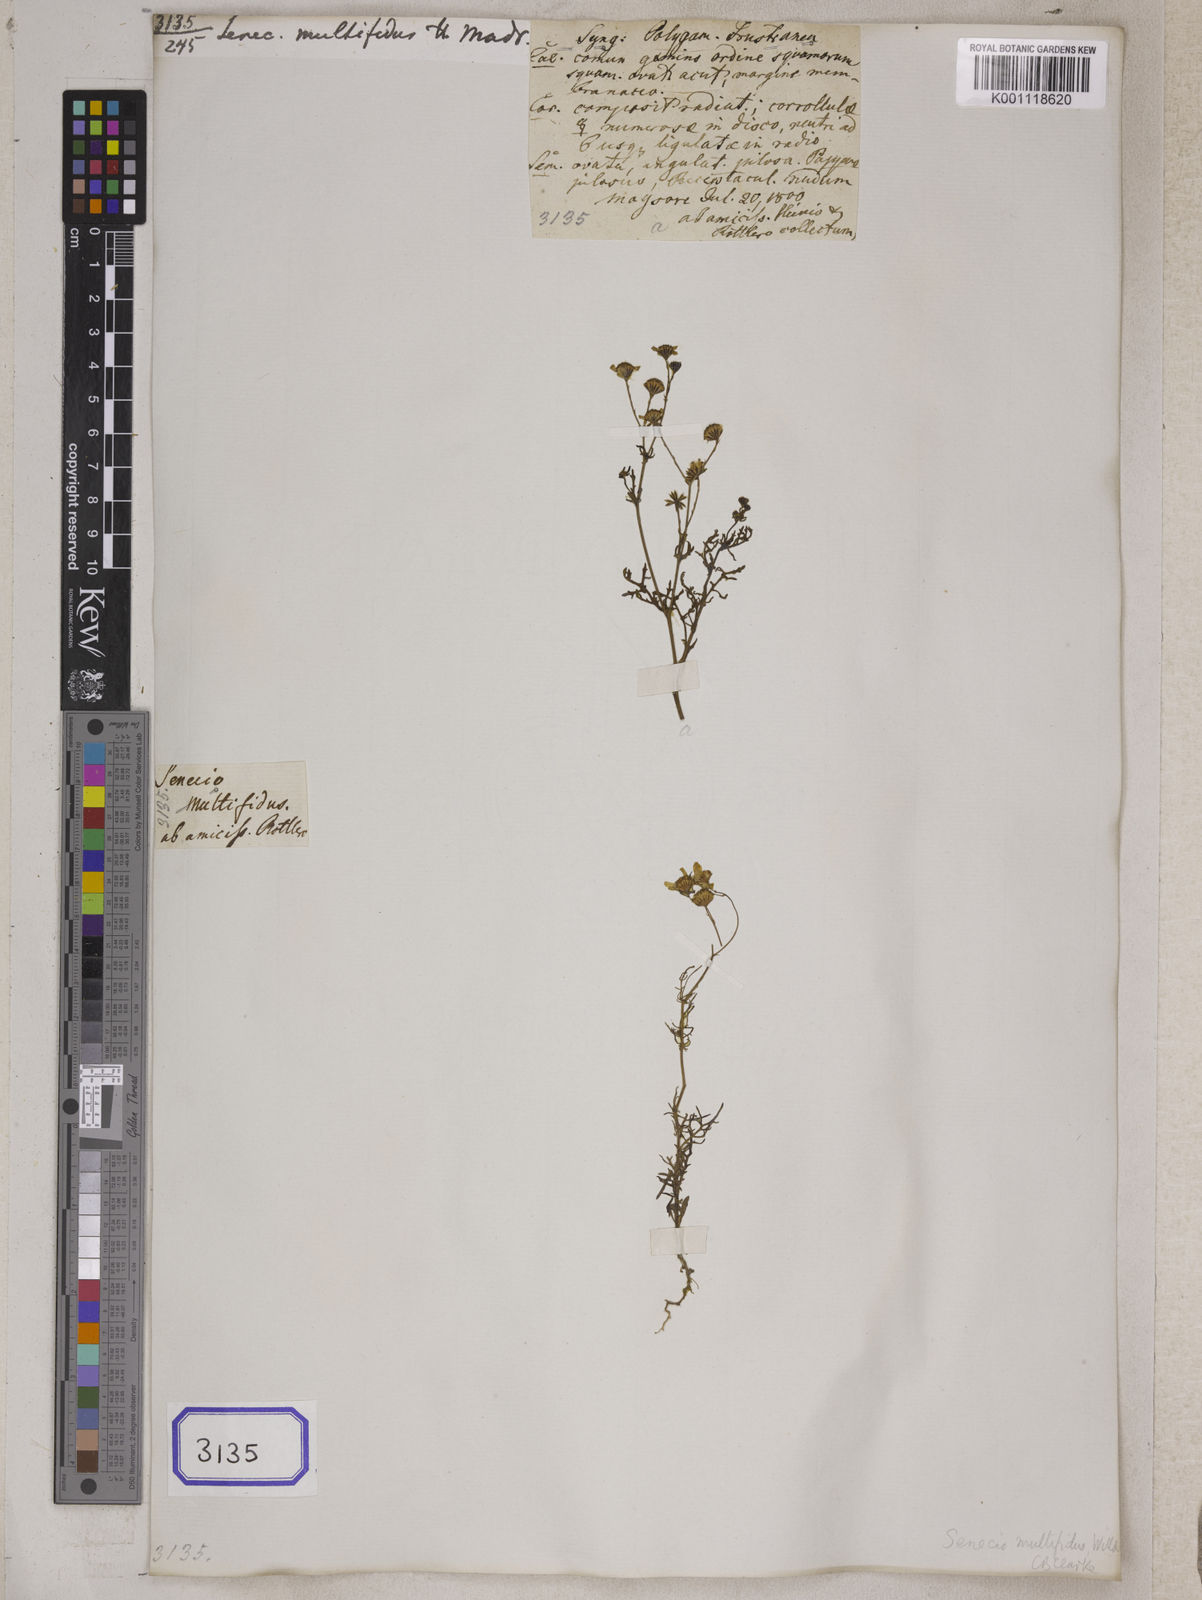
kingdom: Plantae
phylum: Tracheophyta
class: Magnoliopsida
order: Asterales
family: Asteraceae
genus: Senecio
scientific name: Senecio tenuifolius
